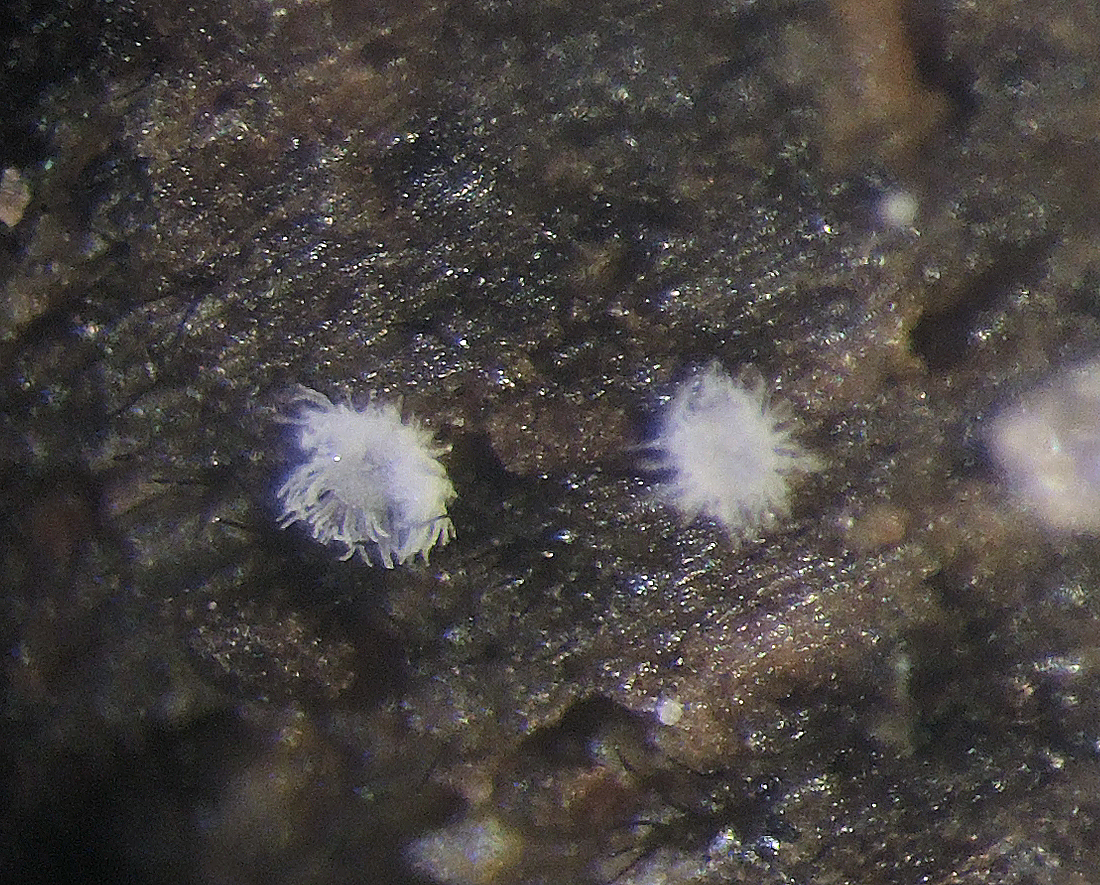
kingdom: Fungi
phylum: Basidiomycota
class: Agaricomycetes
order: Agaricales
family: Tricholomataceae
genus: Pseudolasiobolus
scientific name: Pseudolasiobolus minutissimus
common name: plejadeskål
